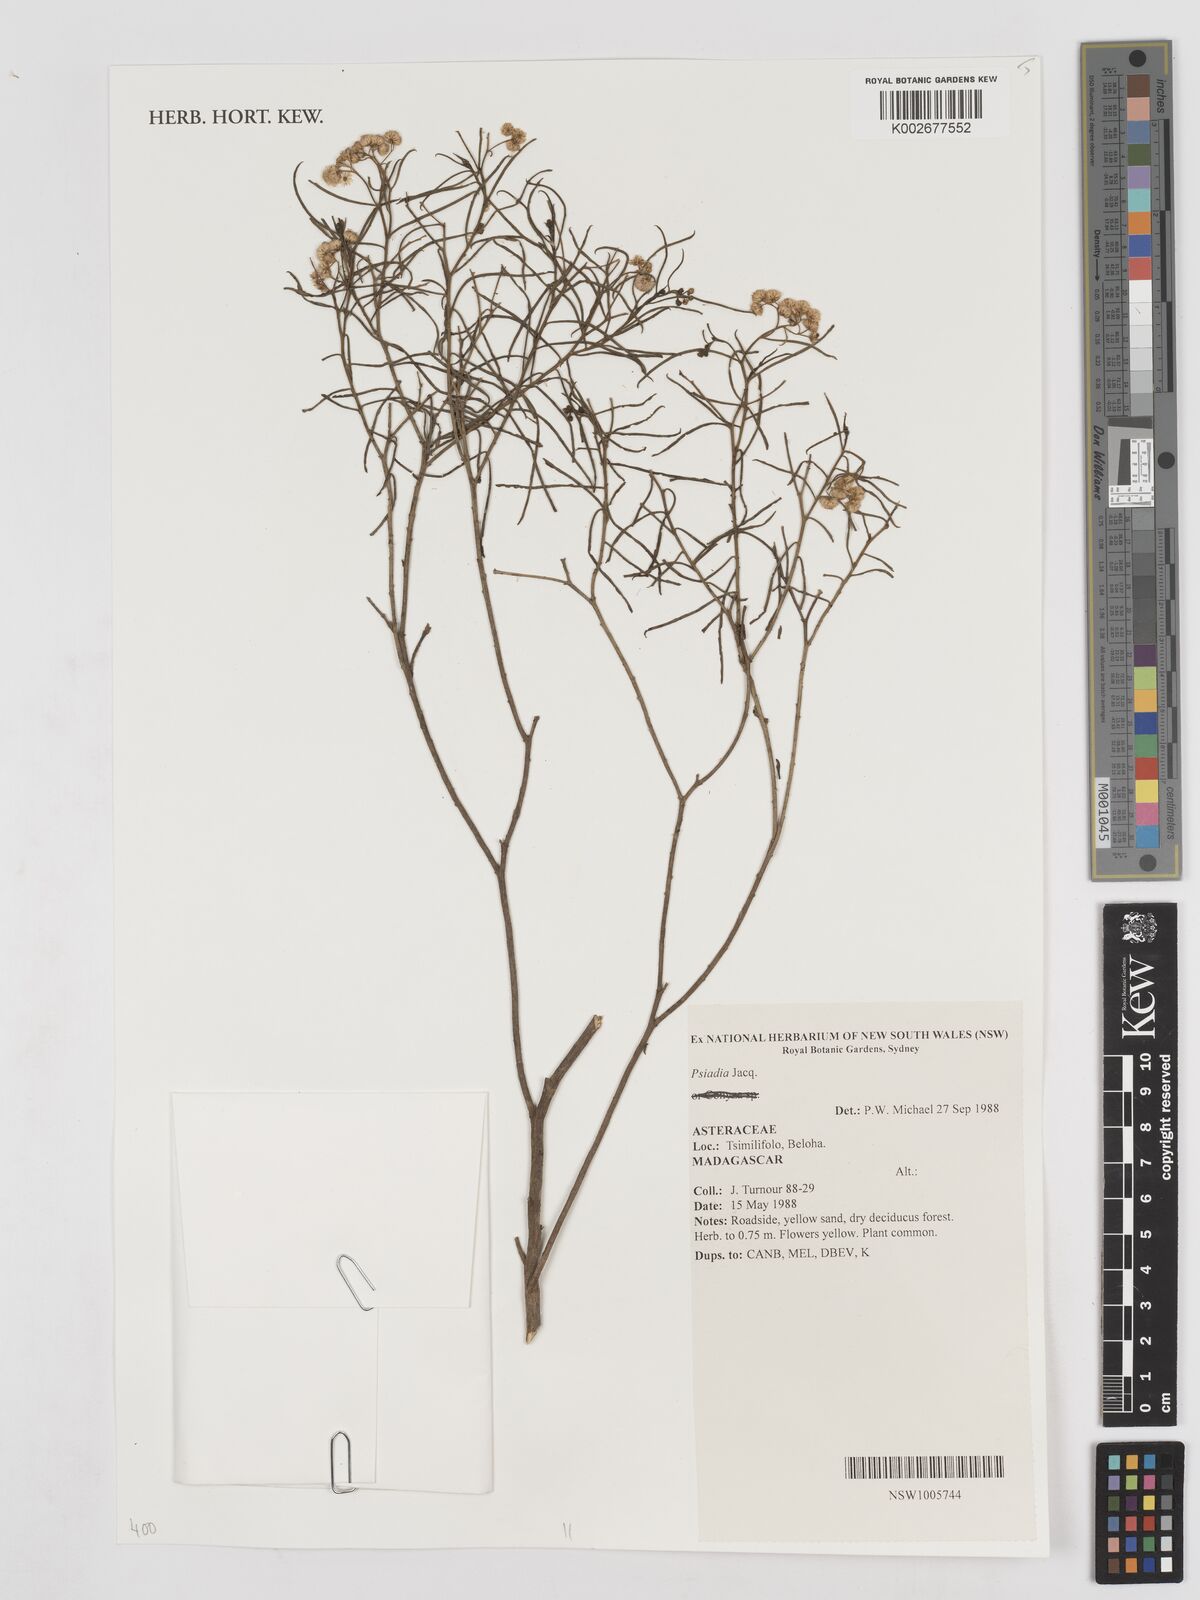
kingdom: Plantae
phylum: Tracheophyta
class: Magnoliopsida
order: Asterales
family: Asteraceae
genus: Psiadia
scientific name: Psiadia
